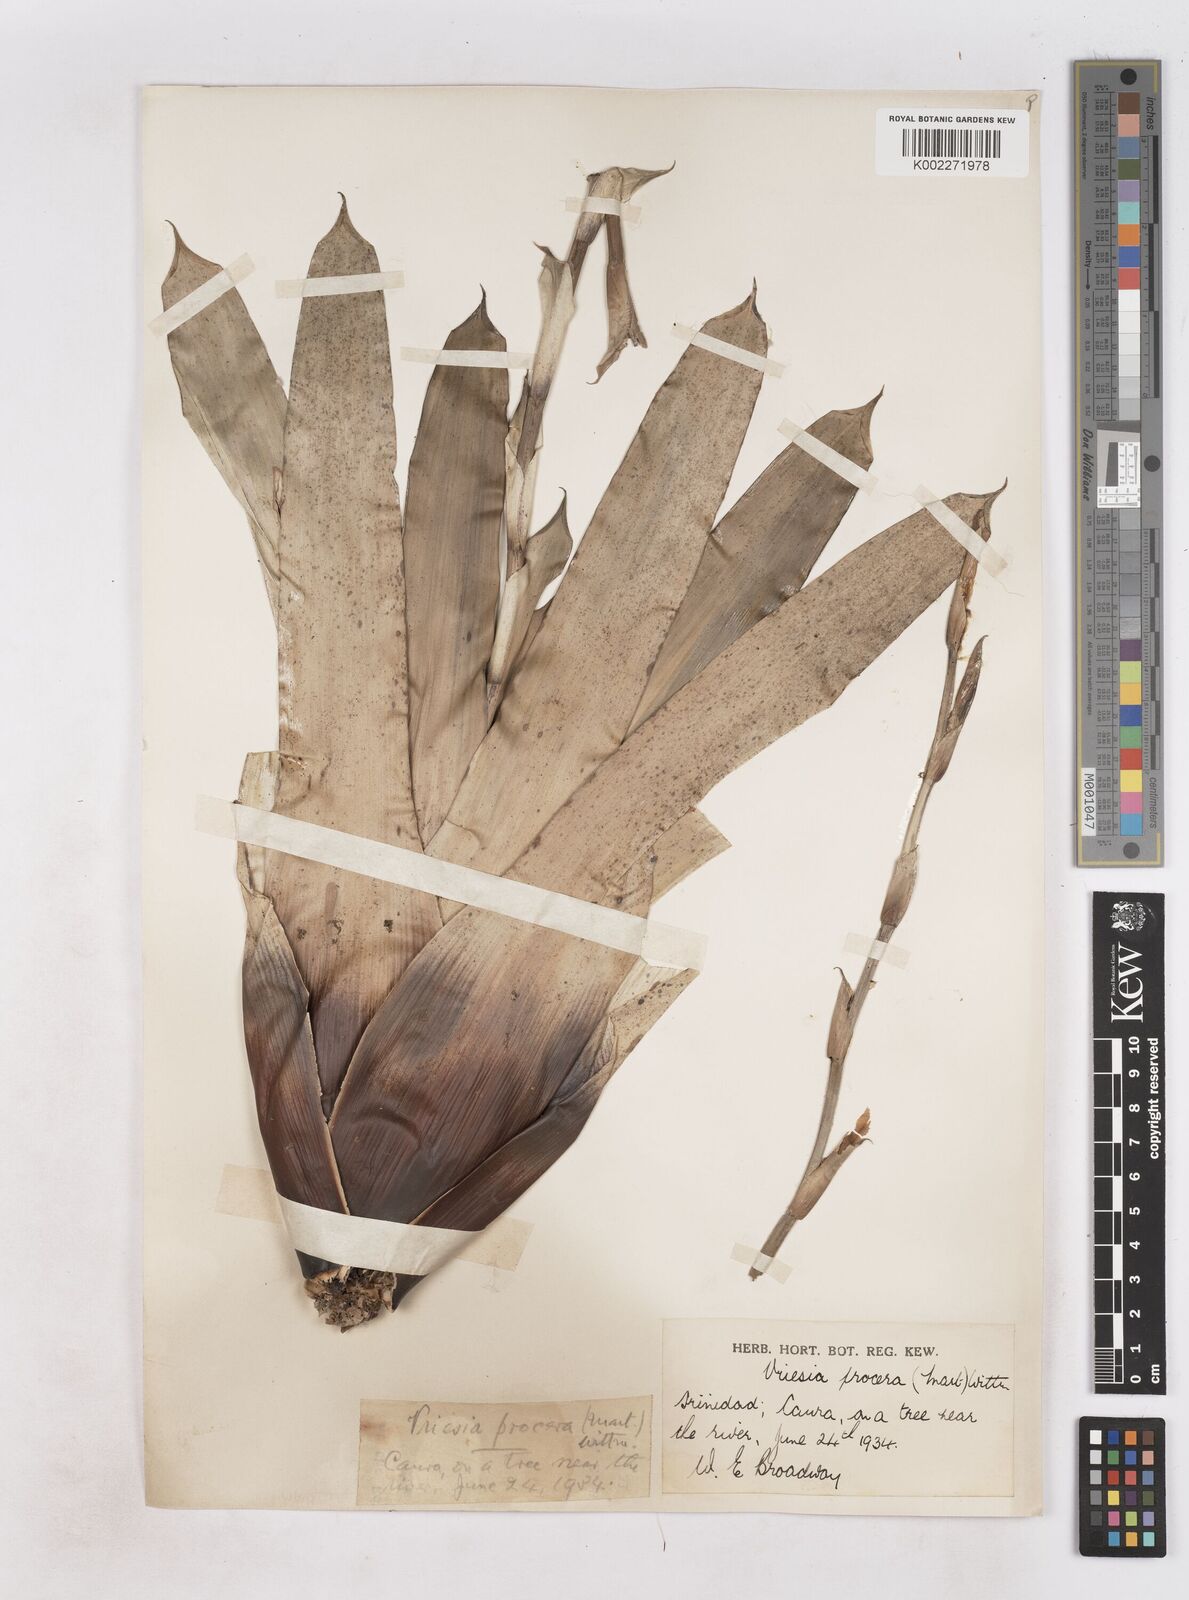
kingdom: Plantae
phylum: Tracheophyta
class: Liliopsida
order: Poales
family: Bromeliaceae
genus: Vriesea
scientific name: Vriesea procera
